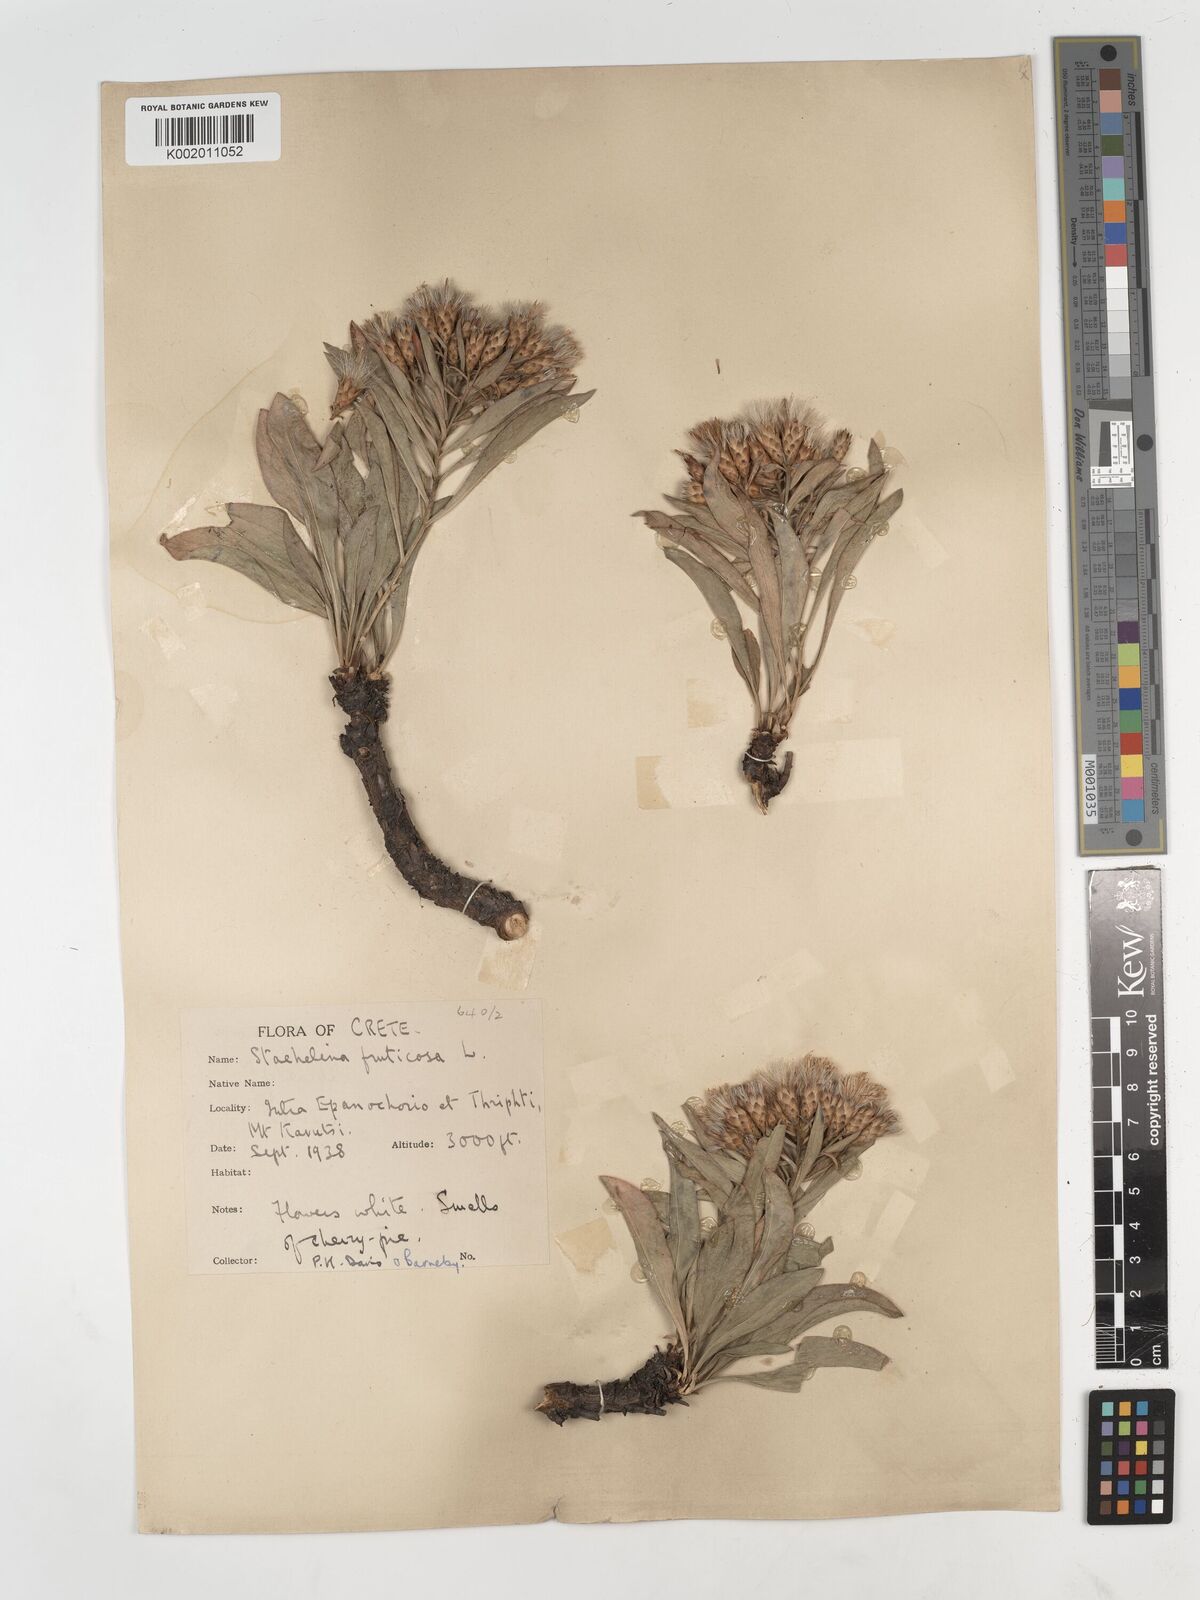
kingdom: Plantae
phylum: Tracheophyta
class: Magnoliopsida
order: Asterales
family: Asteraceae
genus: Hirtellina
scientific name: Hirtellina fruticosa
